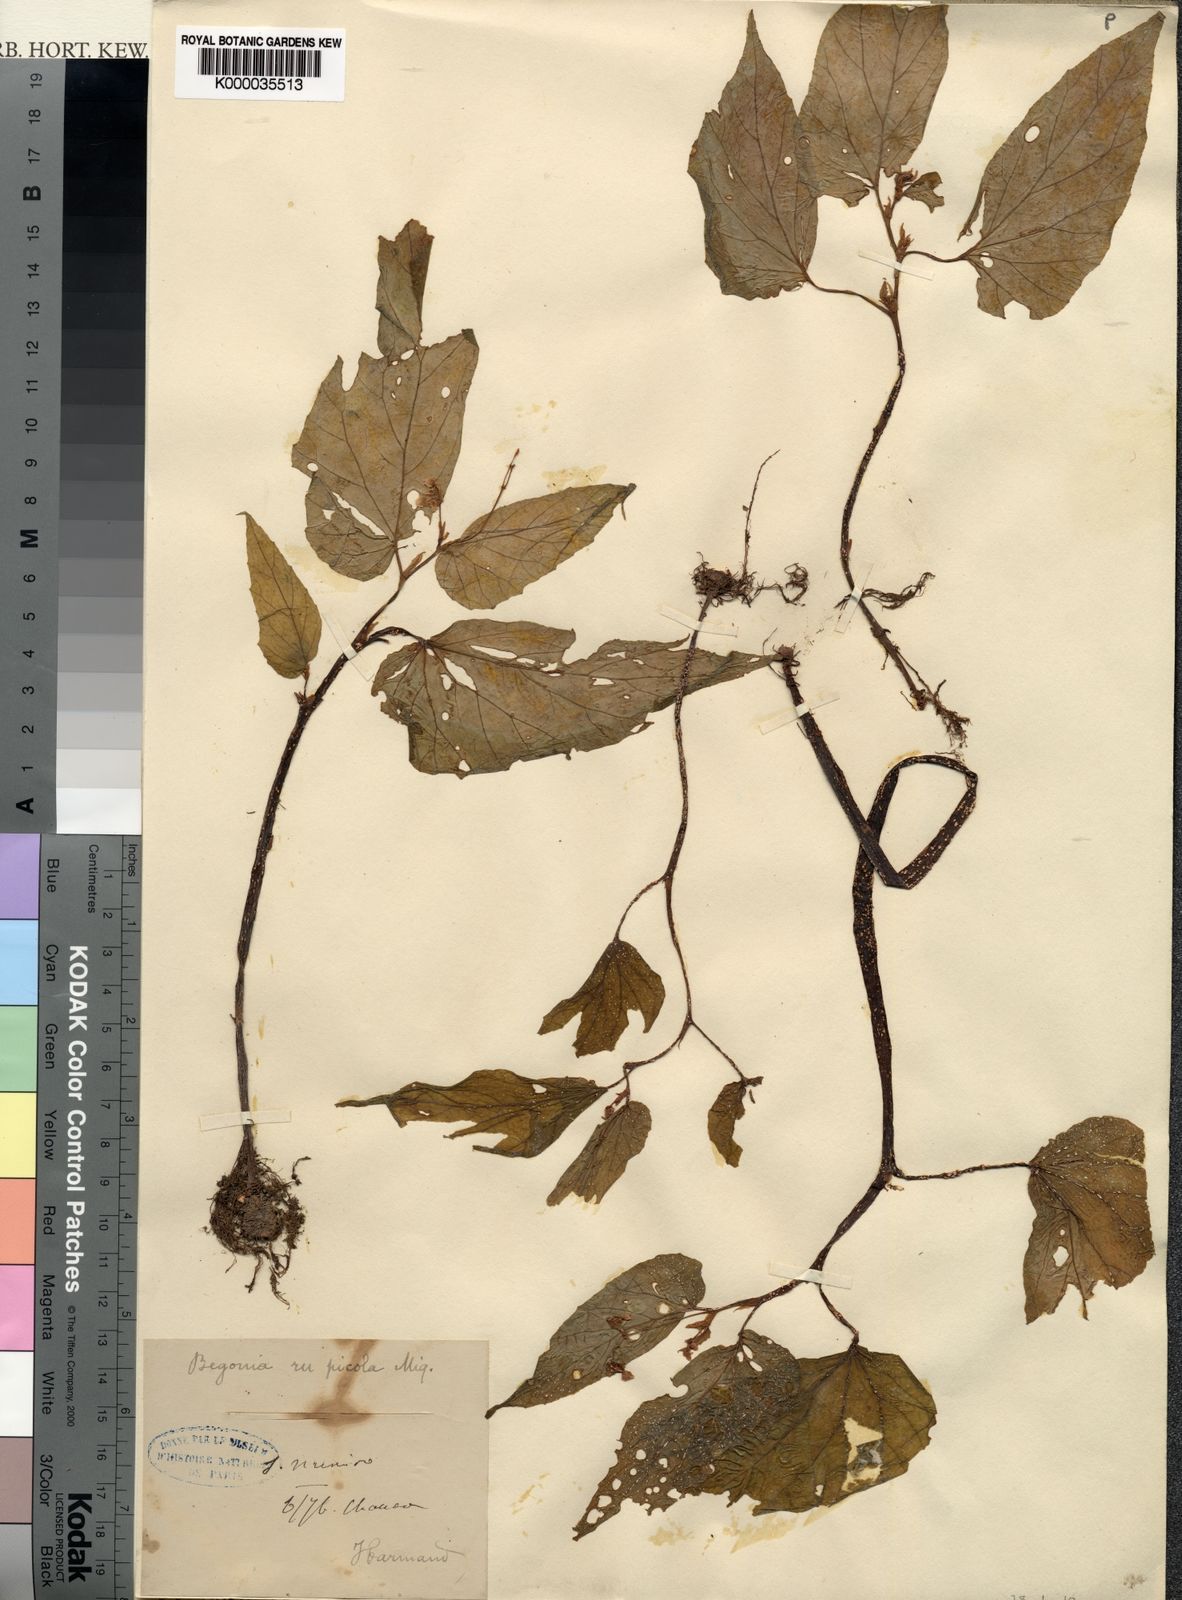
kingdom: Plantae
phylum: Tracheophyta
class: Magnoliopsida
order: Cucurbitales
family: Begoniaceae
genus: Begonia
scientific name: Begonia tenuifolia
